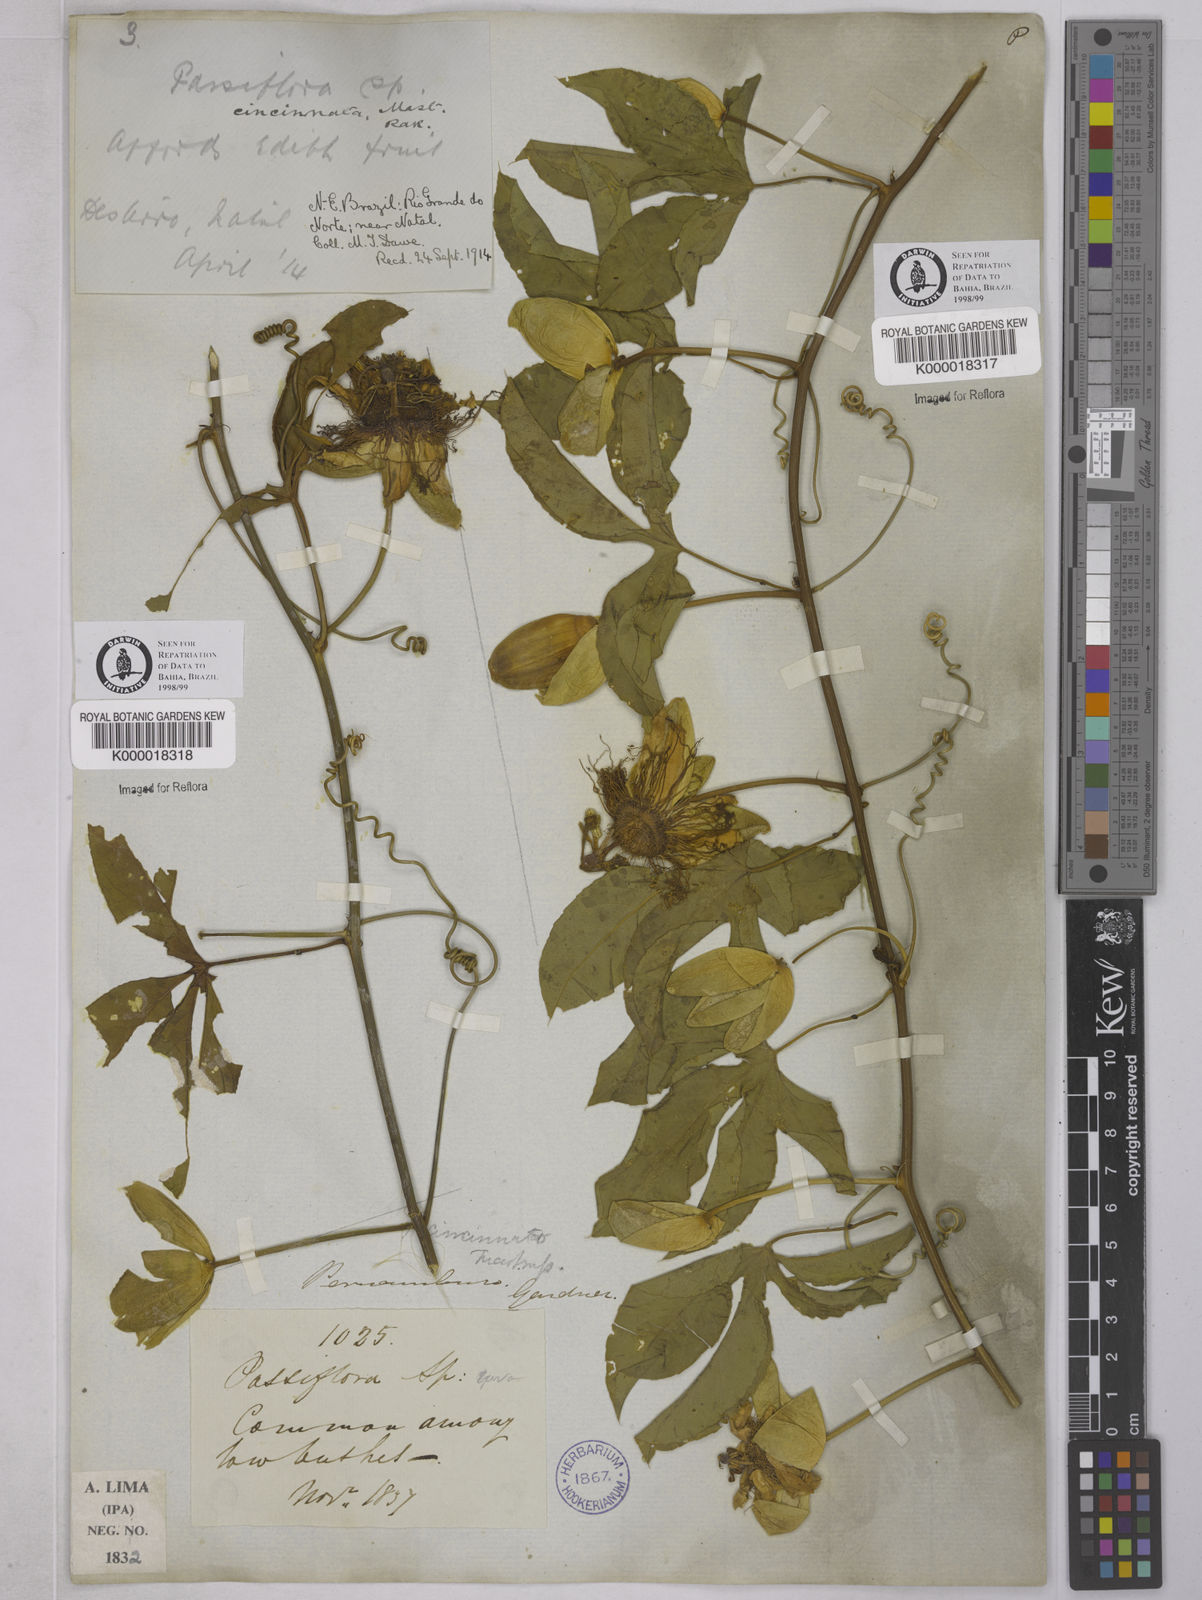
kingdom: Plantae
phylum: Tracheophyta
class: Magnoliopsida
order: Malpighiales
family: Passifloraceae
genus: Passiflora
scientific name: Passiflora cincinnata
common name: Crato passionvine
